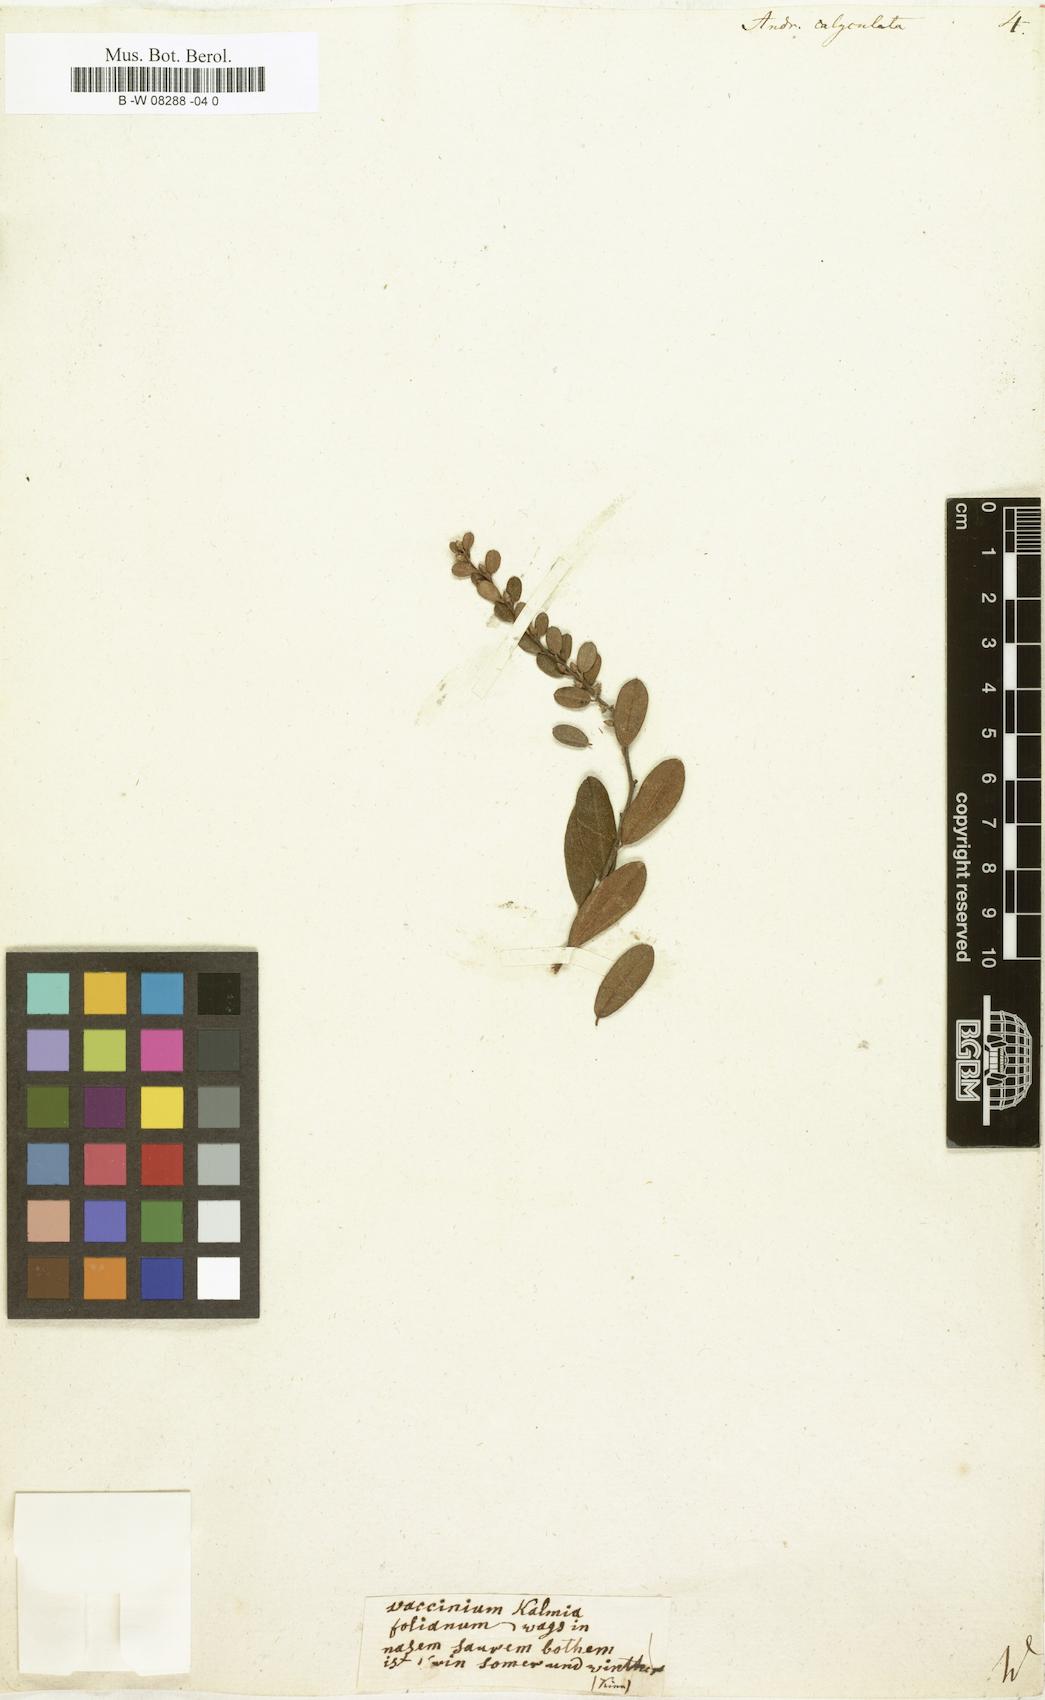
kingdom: Plantae
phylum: Tracheophyta
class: Magnoliopsida
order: Ericales
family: Ericaceae
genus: Chamaedaphne
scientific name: Chamaedaphne calyculata
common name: Leatherleaf
